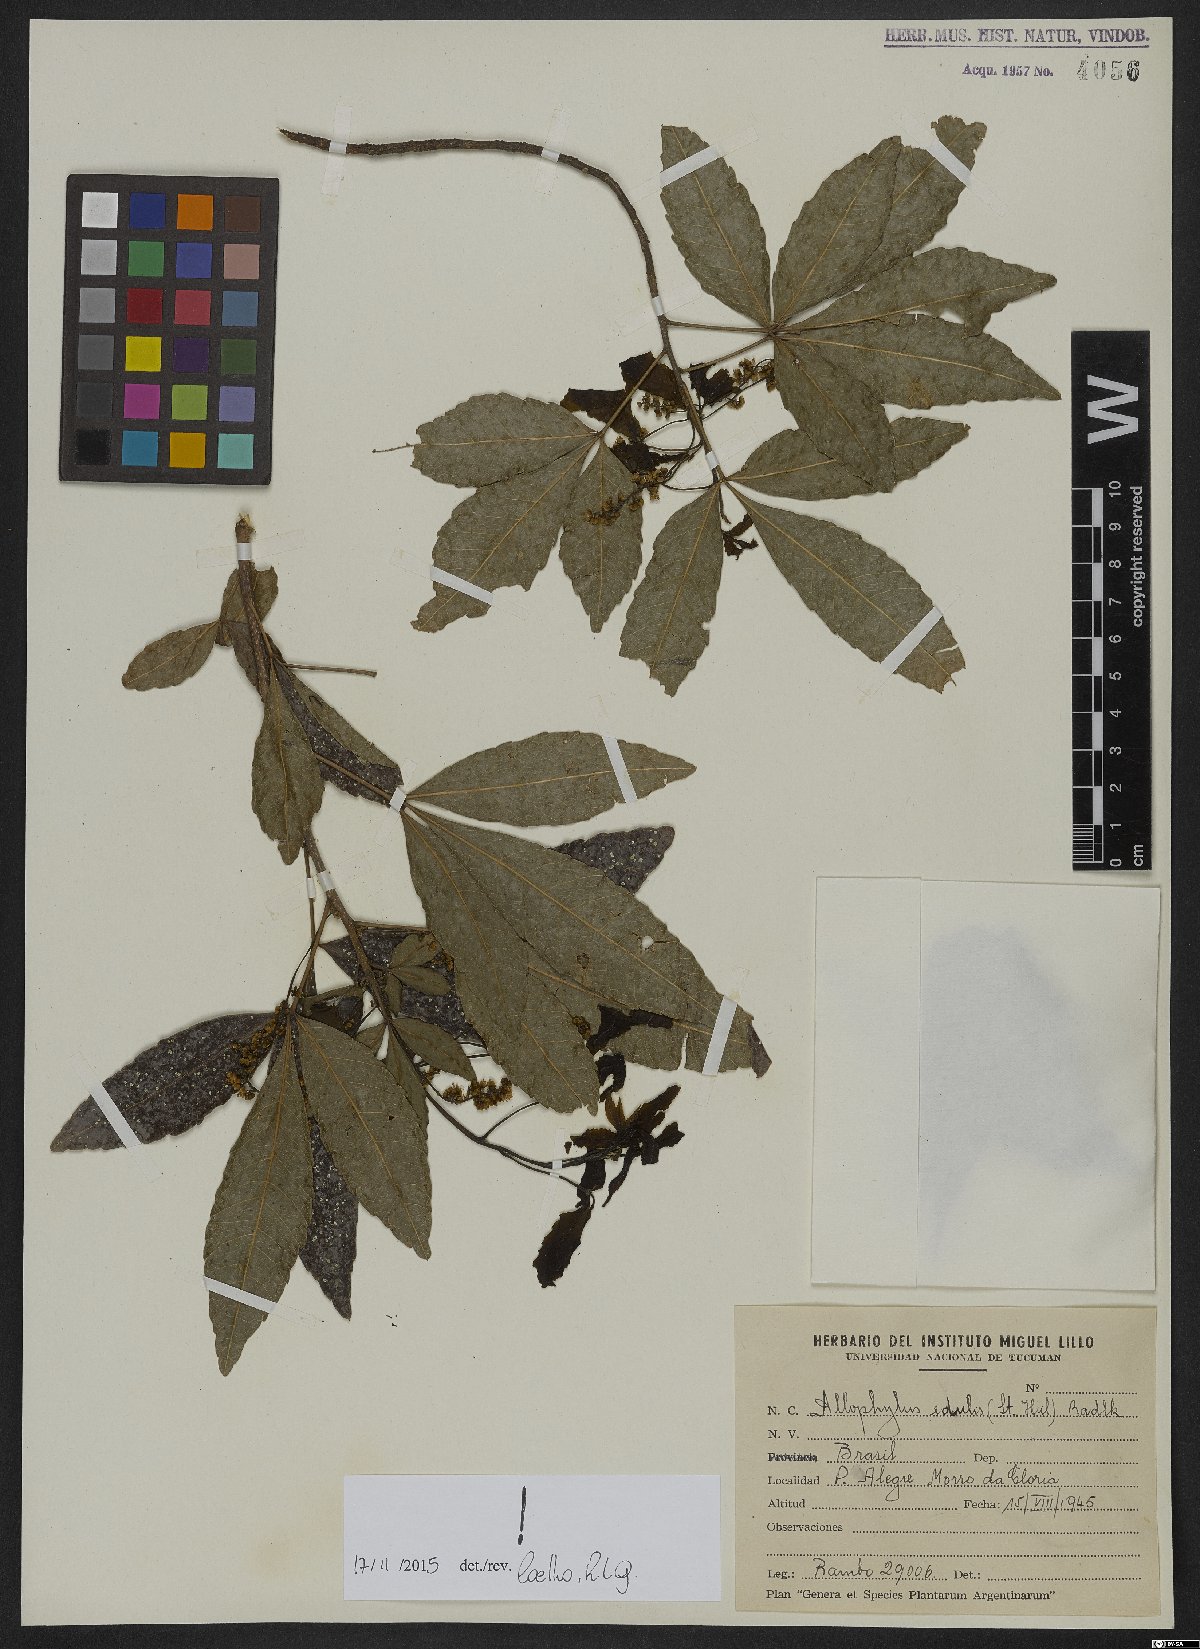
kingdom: Plantae
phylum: Tracheophyta
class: Magnoliopsida
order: Sapindales
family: Sapindaceae
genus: Allophylus
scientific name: Allophylus edulis
